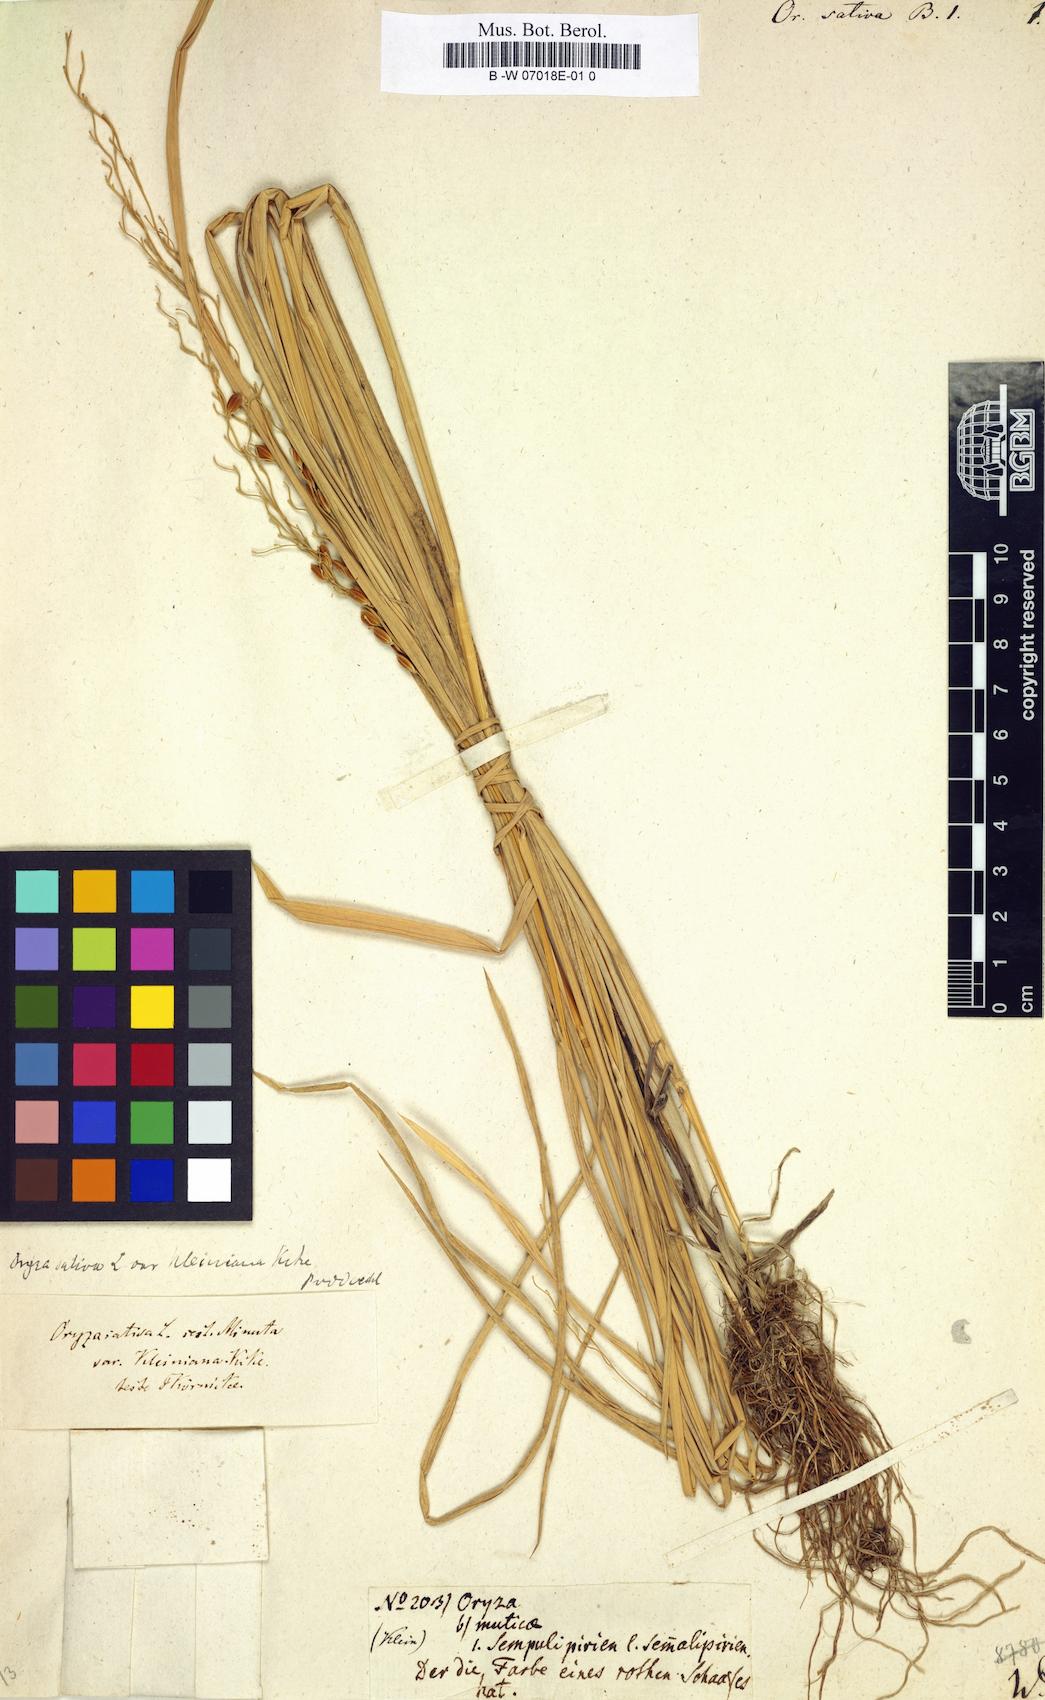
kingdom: Plantae
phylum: Tracheophyta
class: Liliopsida
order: Poales
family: Poaceae
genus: Oryza
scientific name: Oryza sativa
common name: Rice
